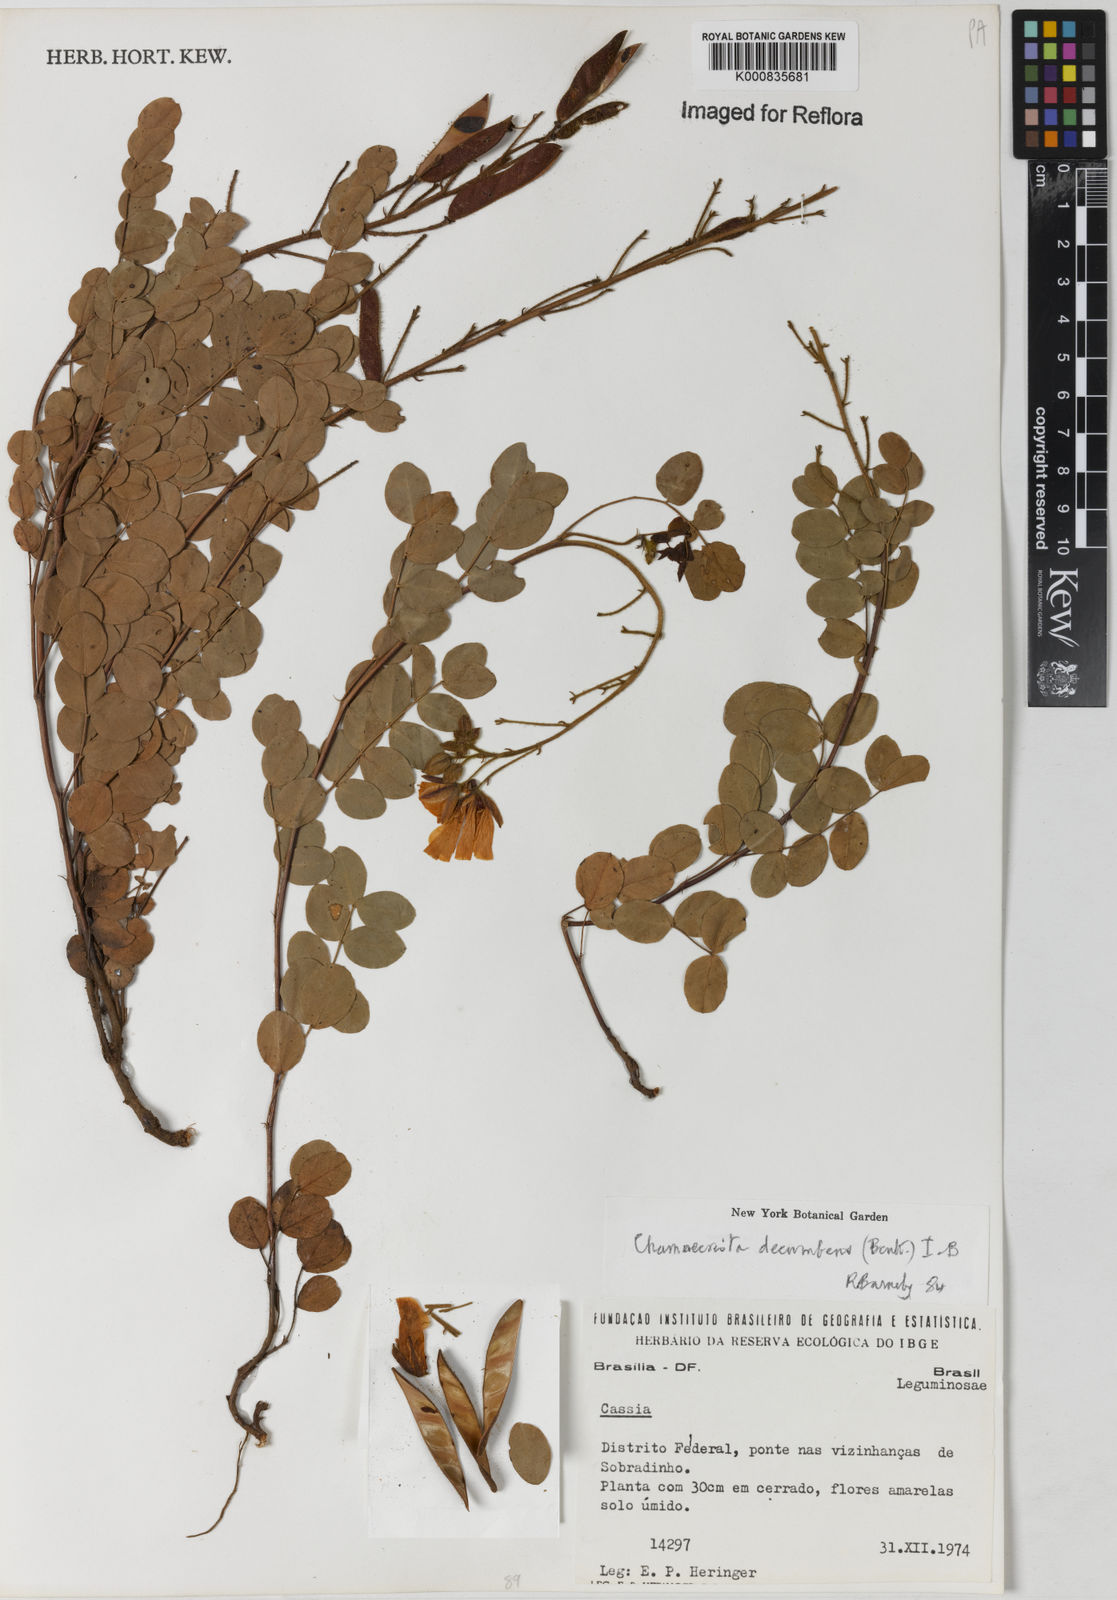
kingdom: Plantae
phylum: Tracheophyta
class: Magnoliopsida
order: Fabales
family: Fabaceae
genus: Chamaecrista
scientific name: Chamaecrista decumbens
